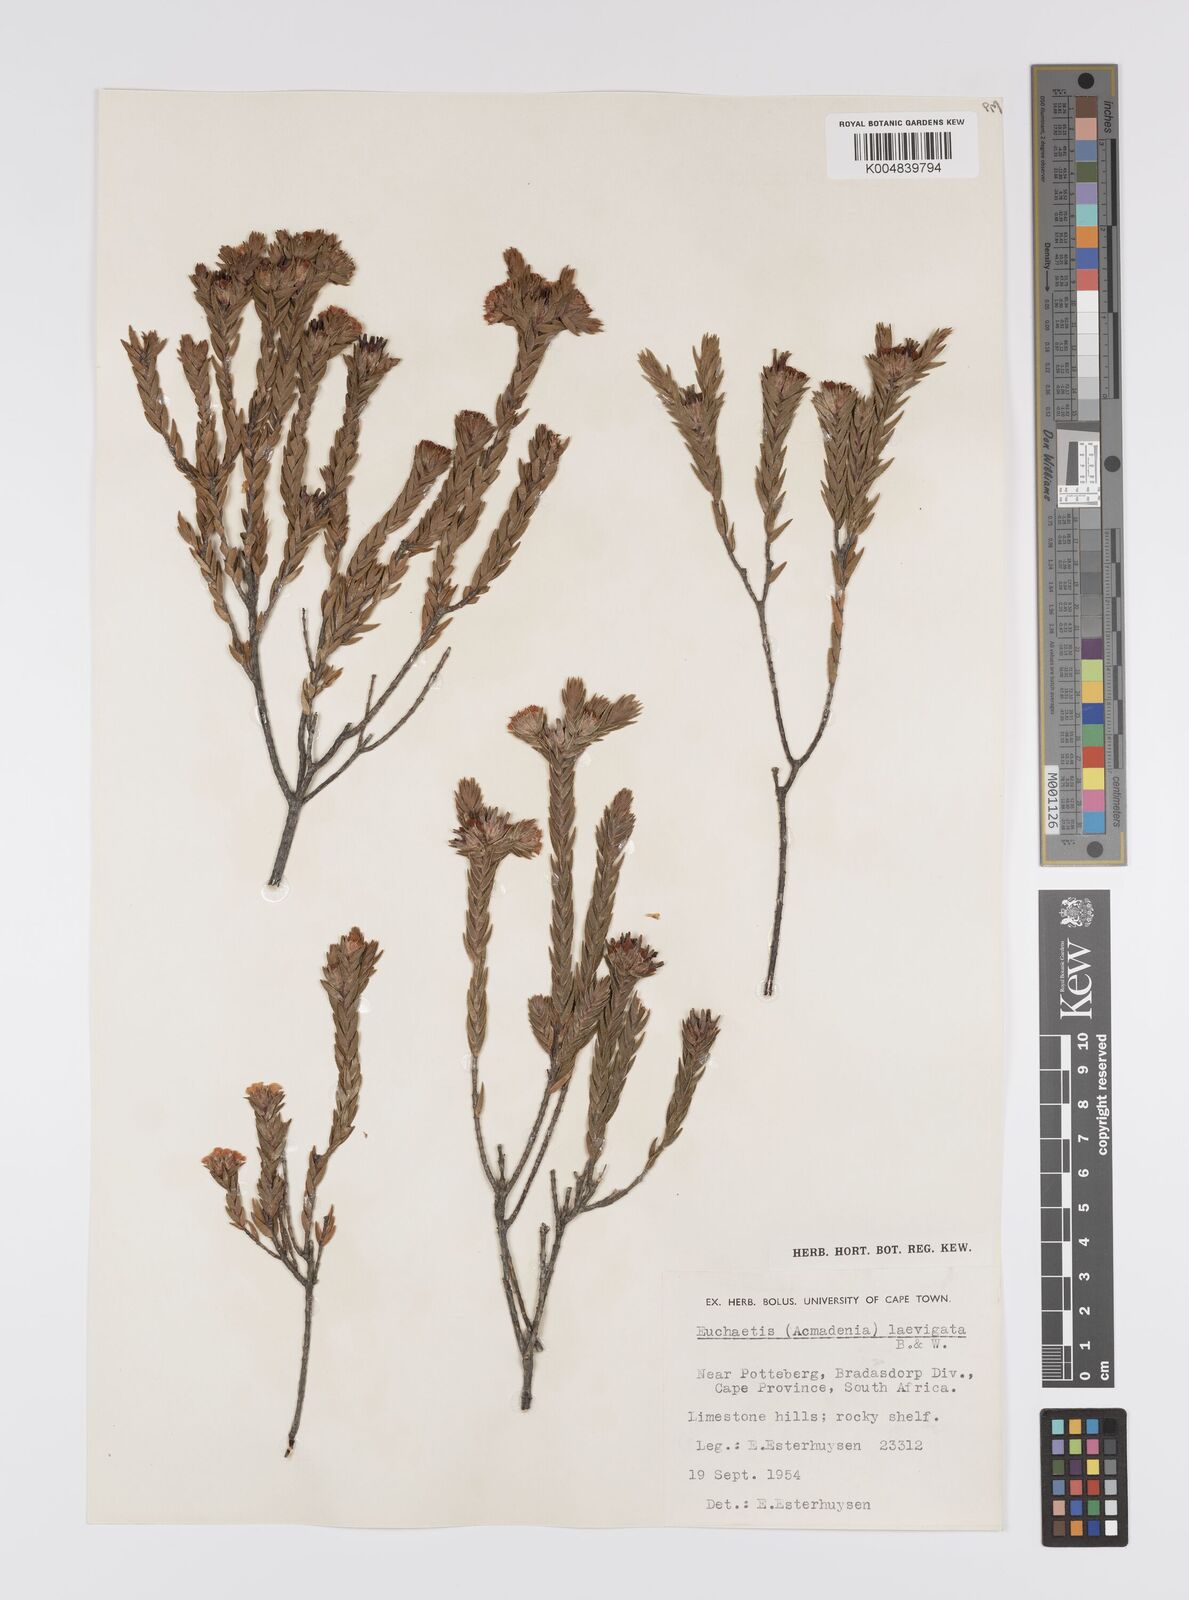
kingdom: Plantae
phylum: Tracheophyta
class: Magnoliopsida
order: Sapindales
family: Rutaceae
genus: Euchaetis
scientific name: Euchaetis
